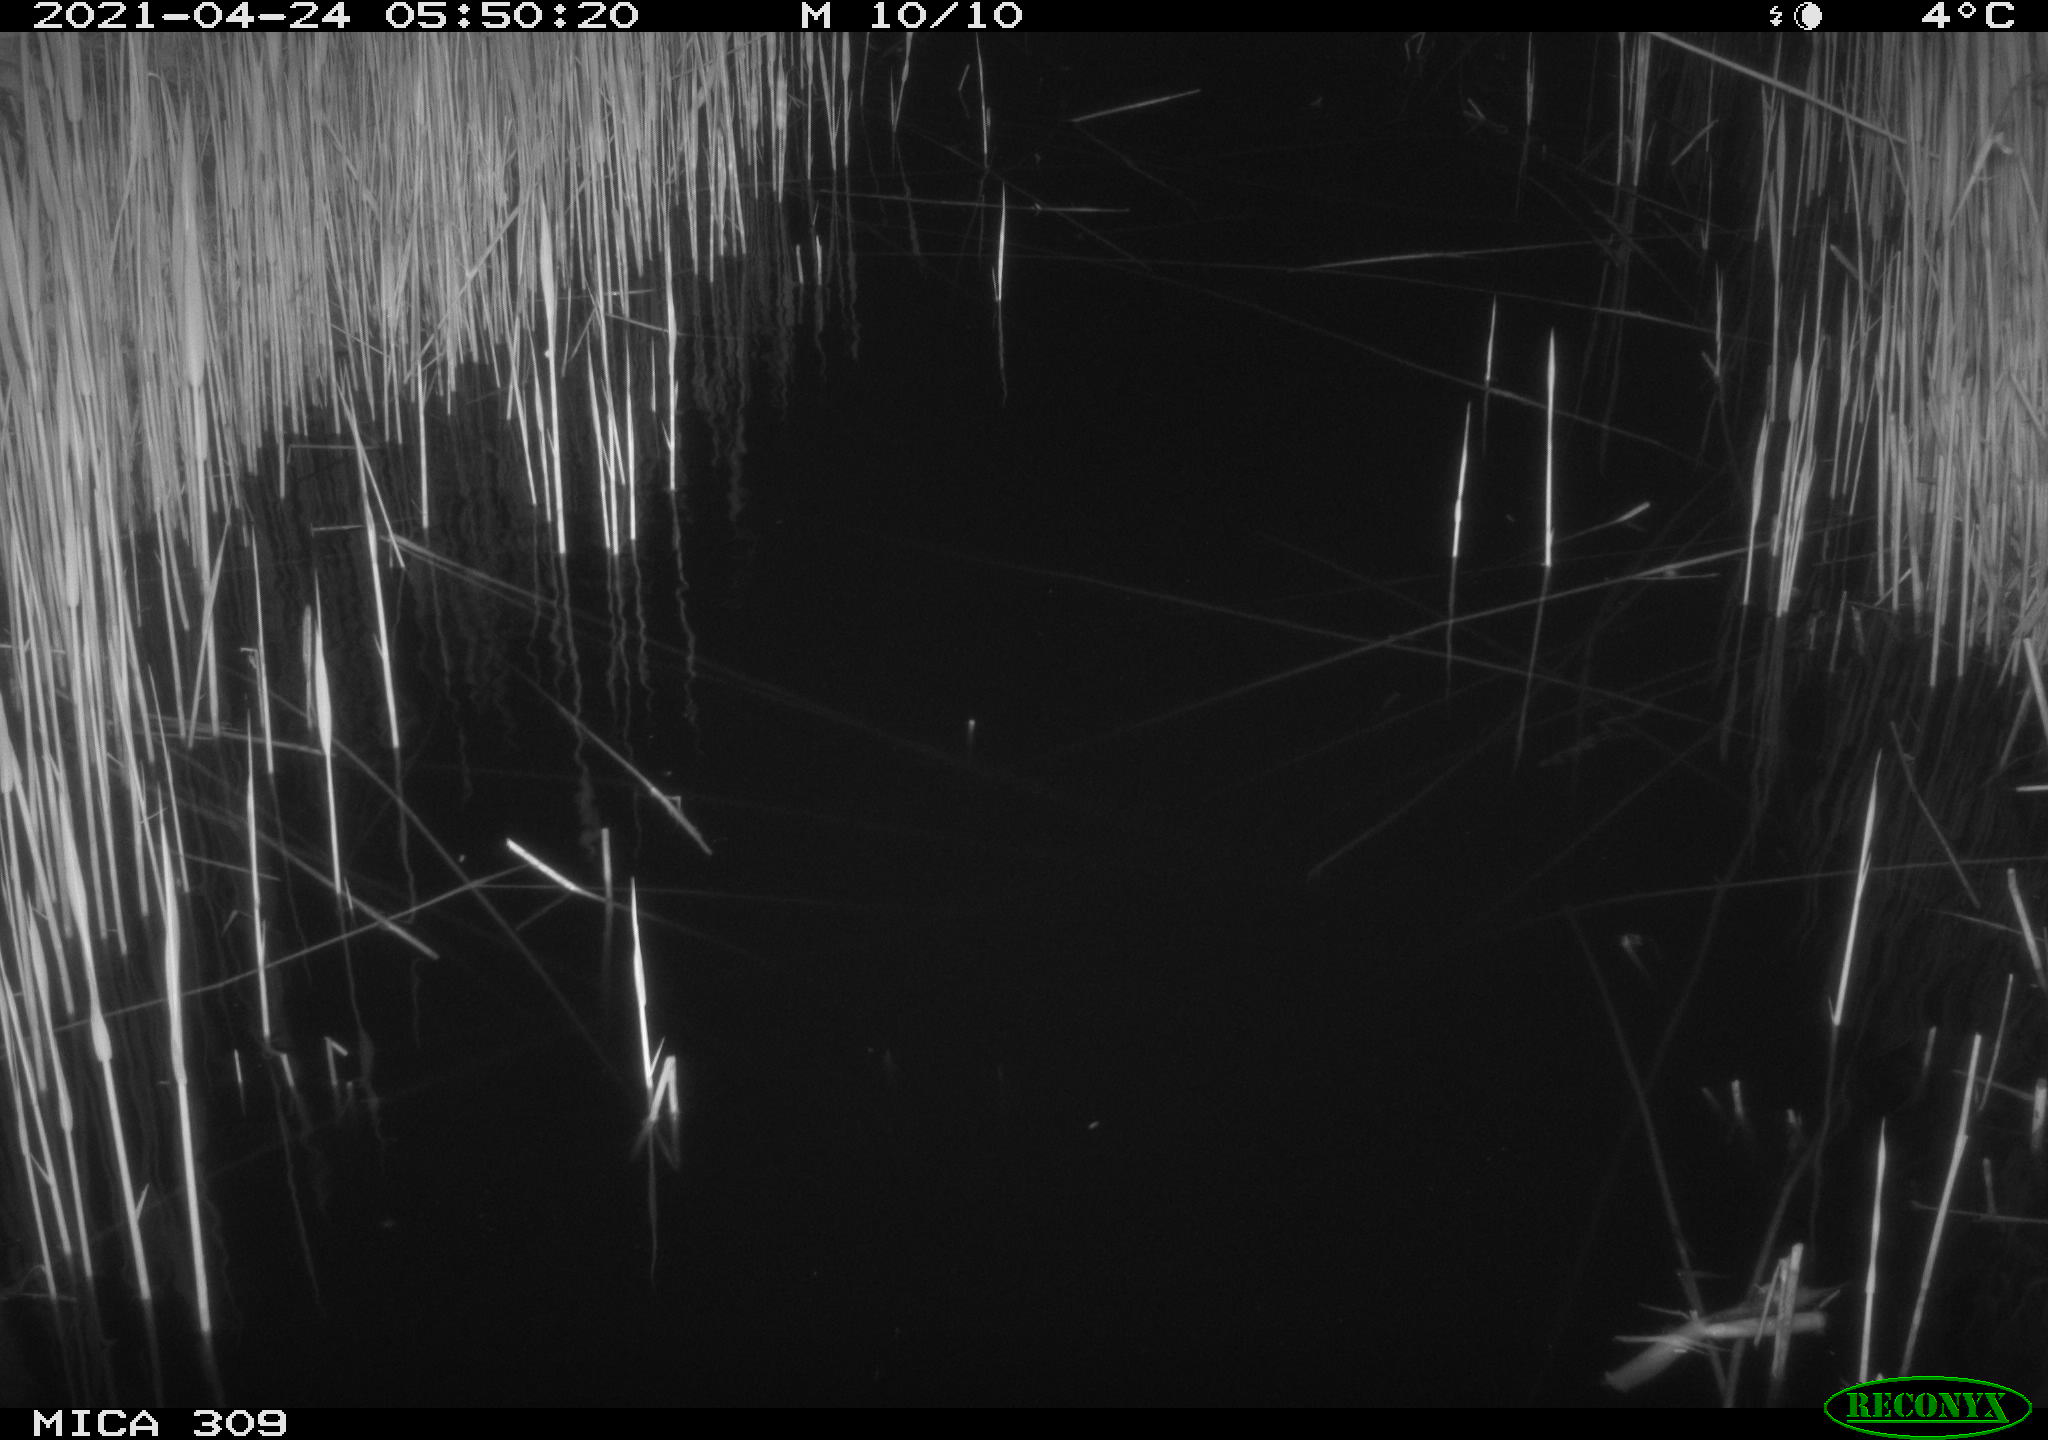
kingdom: Animalia
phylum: Chordata
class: Aves
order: Anseriformes
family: Anatidae
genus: Anas
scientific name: Anas platyrhynchos
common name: Mallard
